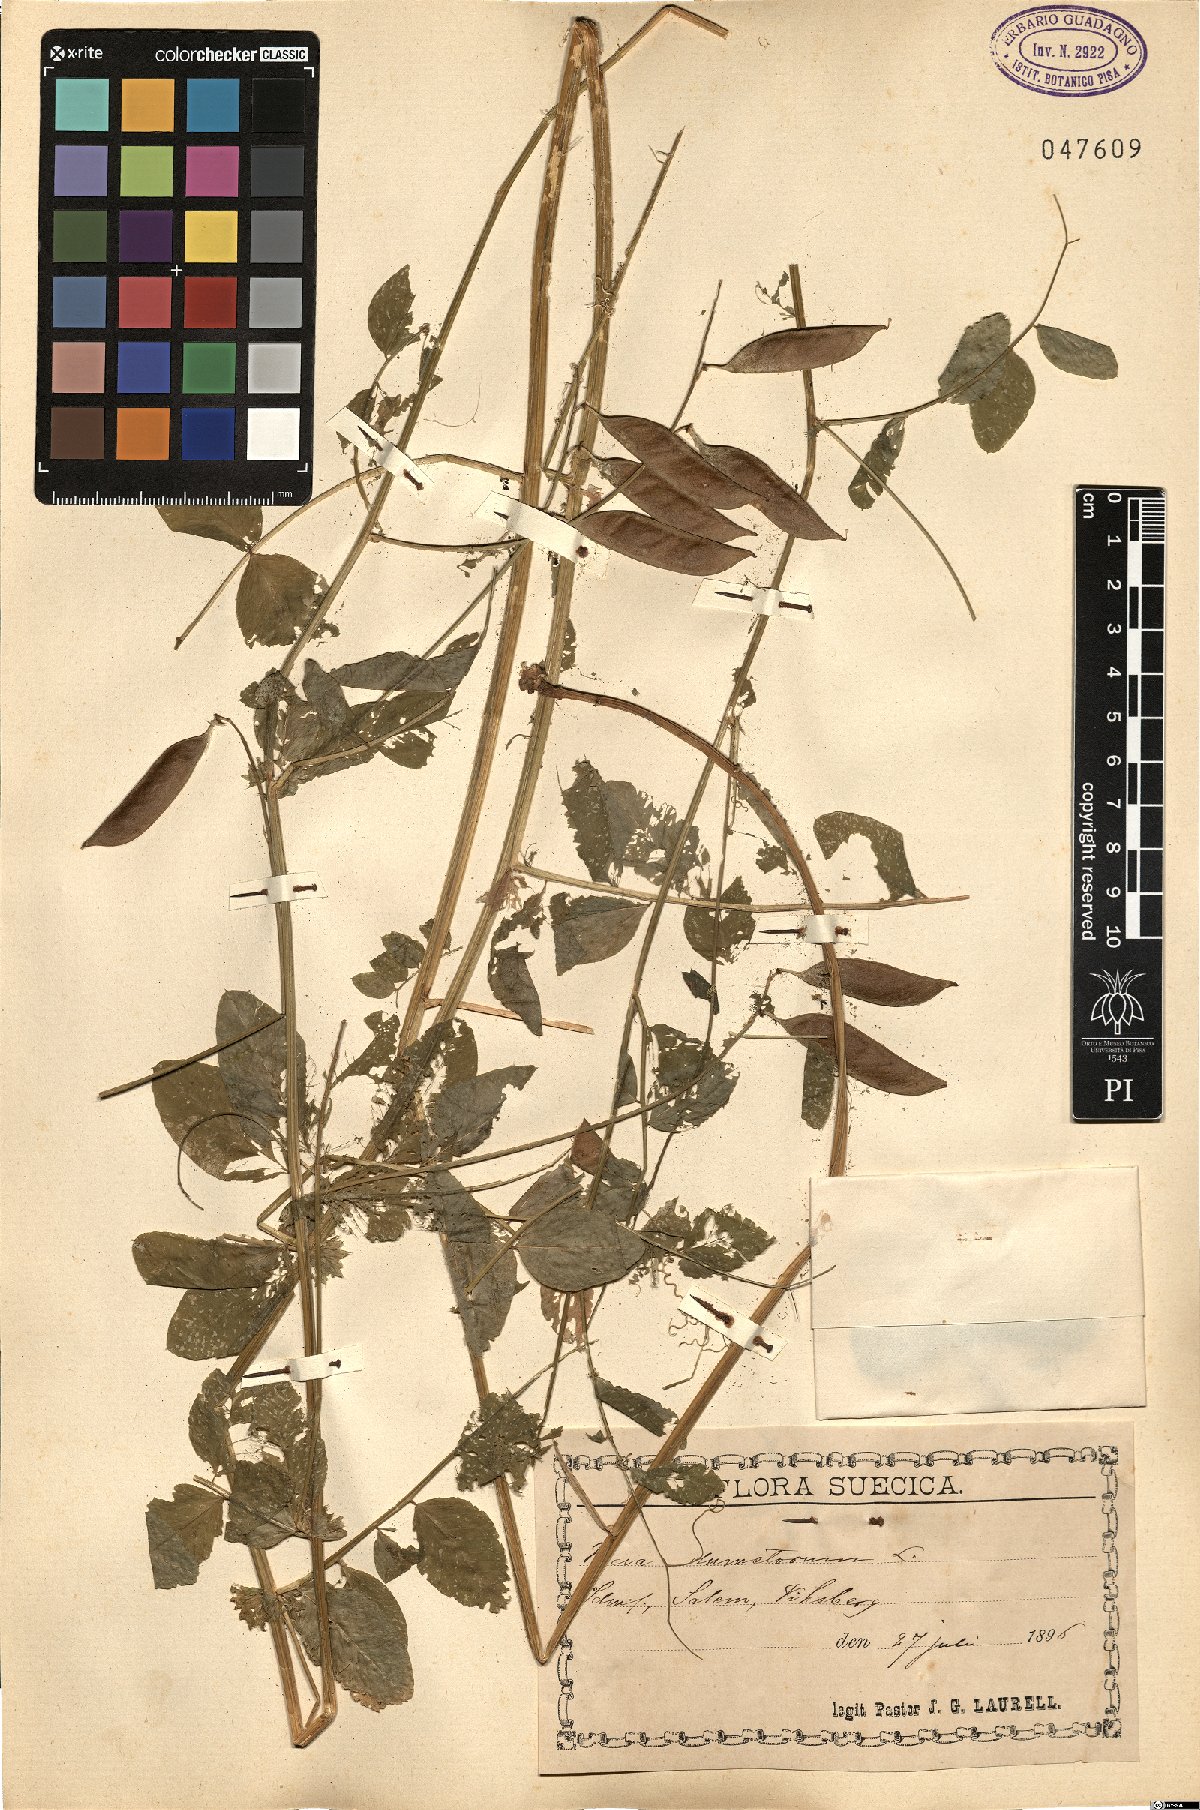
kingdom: Plantae
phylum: Tracheophyta
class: Magnoliopsida
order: Fabales
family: Fabaceae
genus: Vicia
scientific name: Vicia dumetorum
